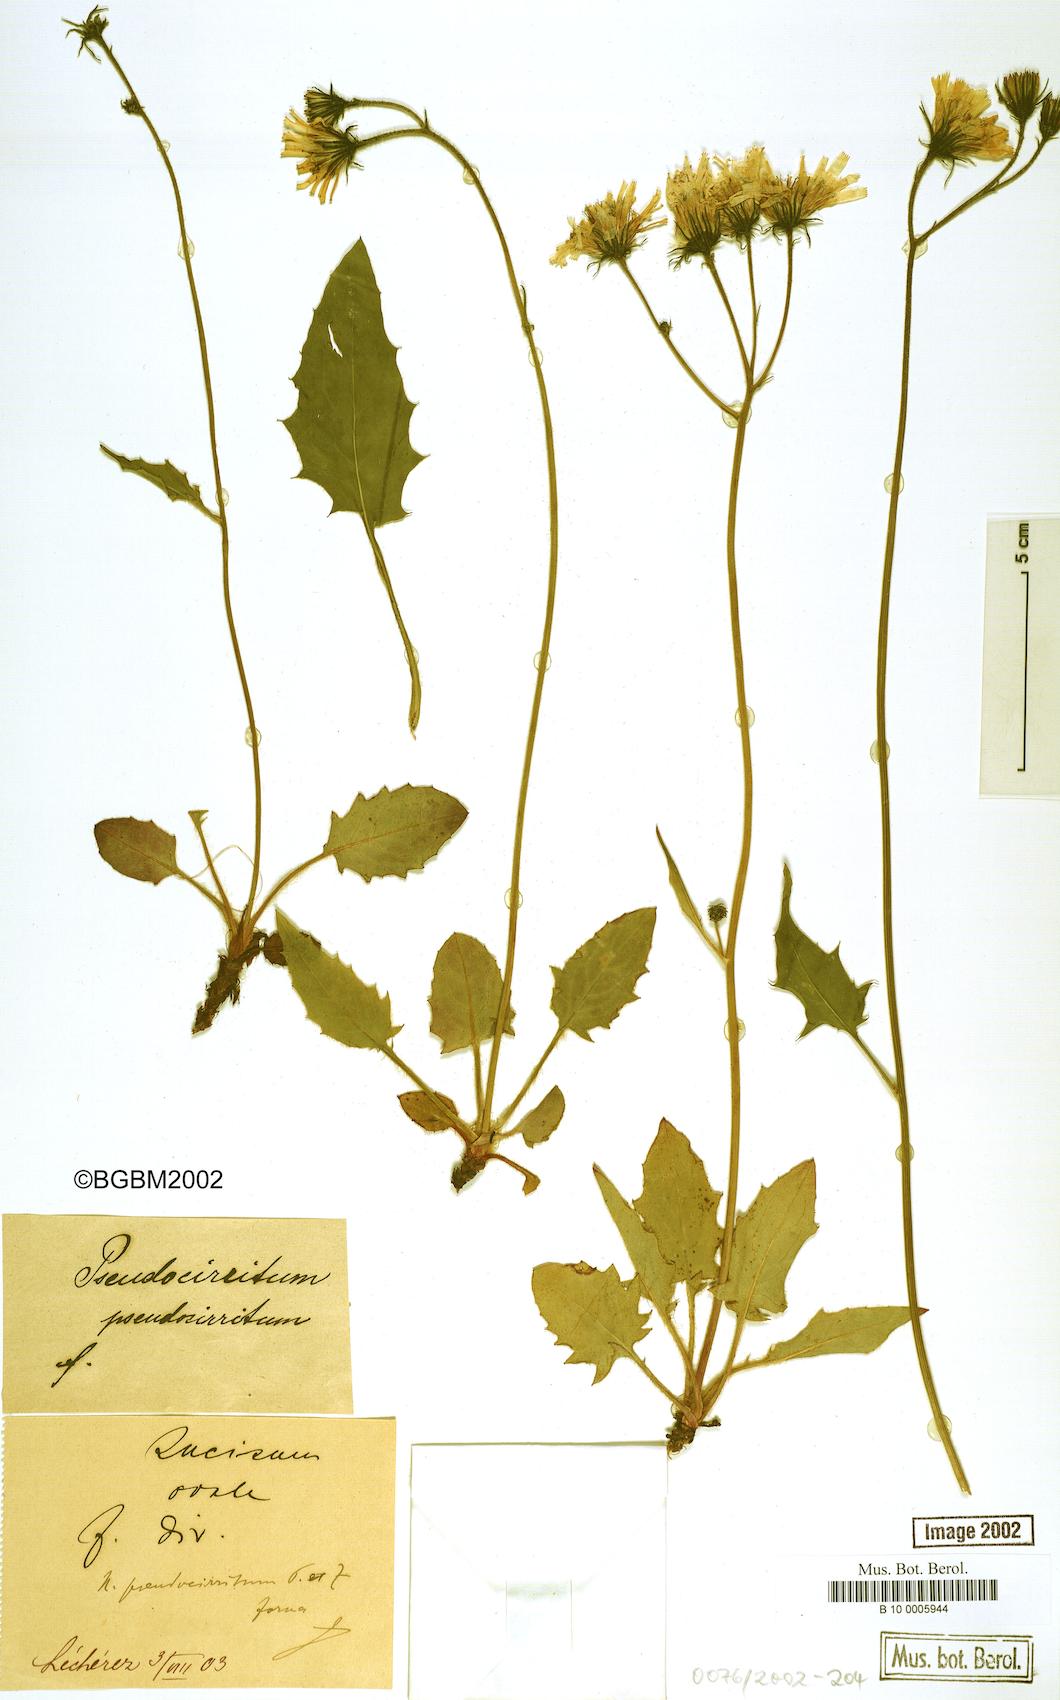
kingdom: Plantae
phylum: Tracheophyta
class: Magnoliopsida
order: Asterales
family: Asteraceae
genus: Hieracium
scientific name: Hieracium cirritum
